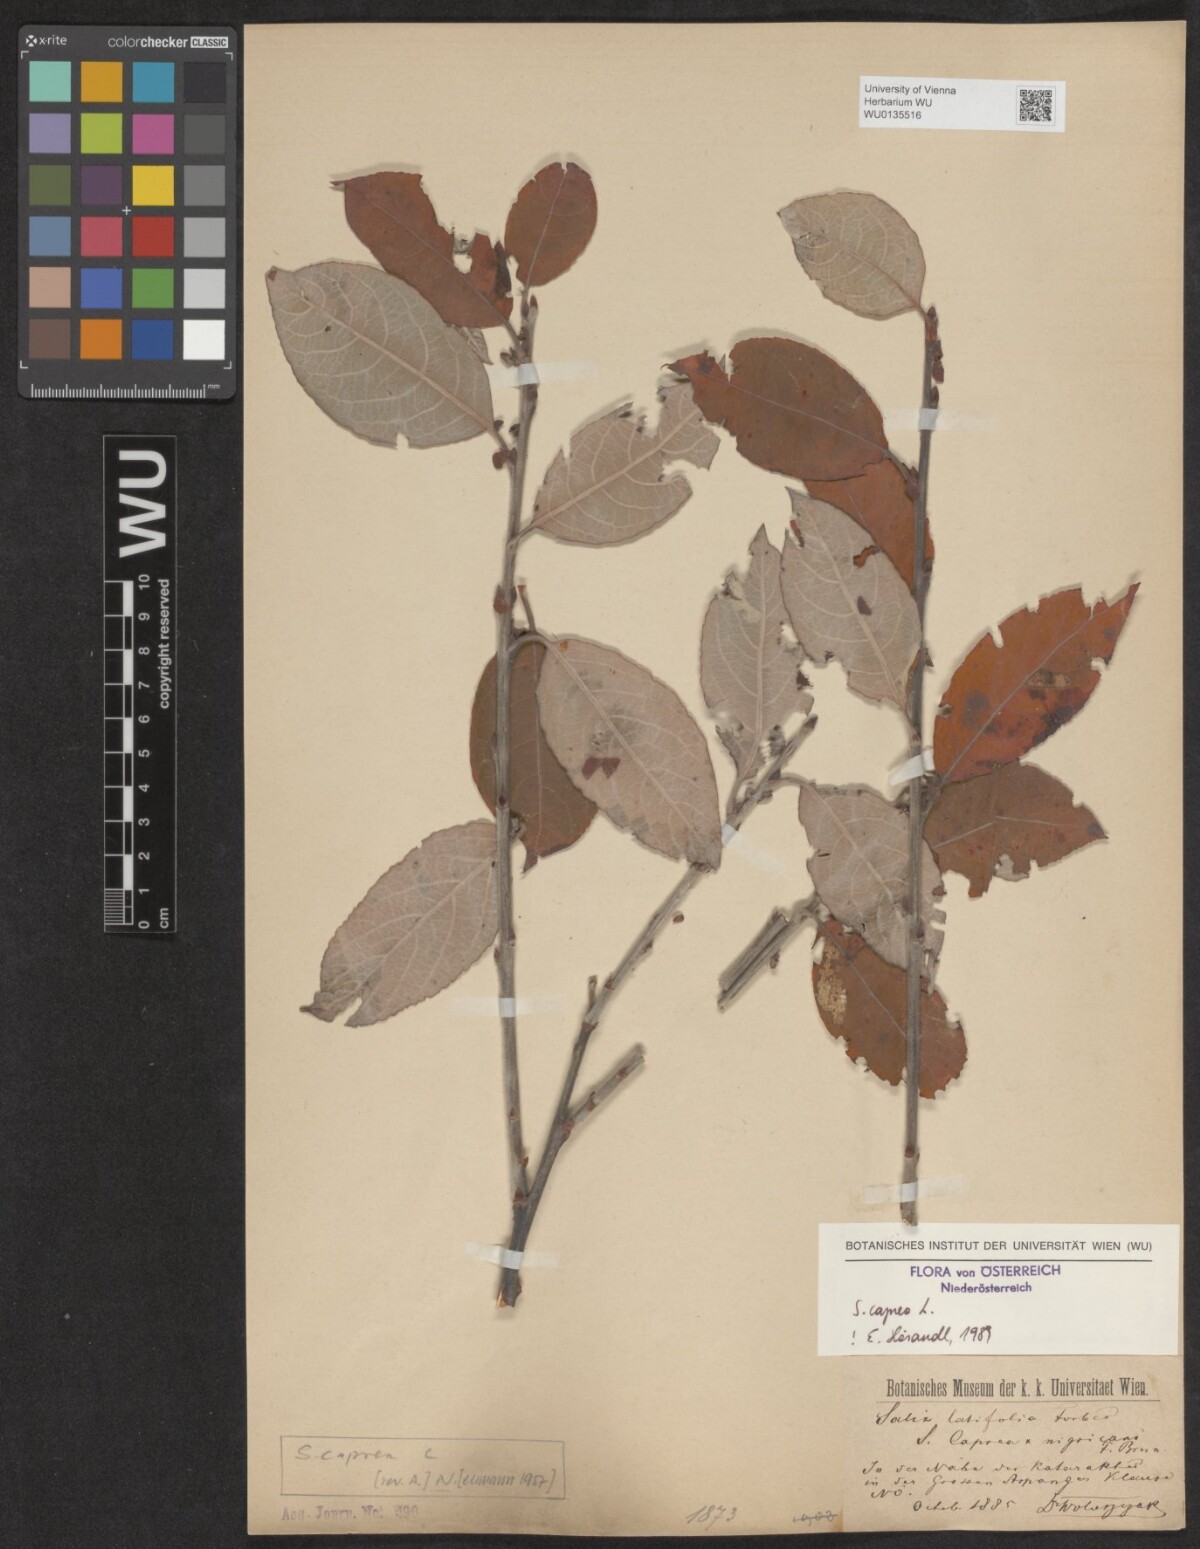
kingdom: Plantae
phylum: Tracheophyta
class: Magnoliopsida
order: Malpighiales
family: Salicaceae
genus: Salix
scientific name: Salix caprea
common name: Goat willow
